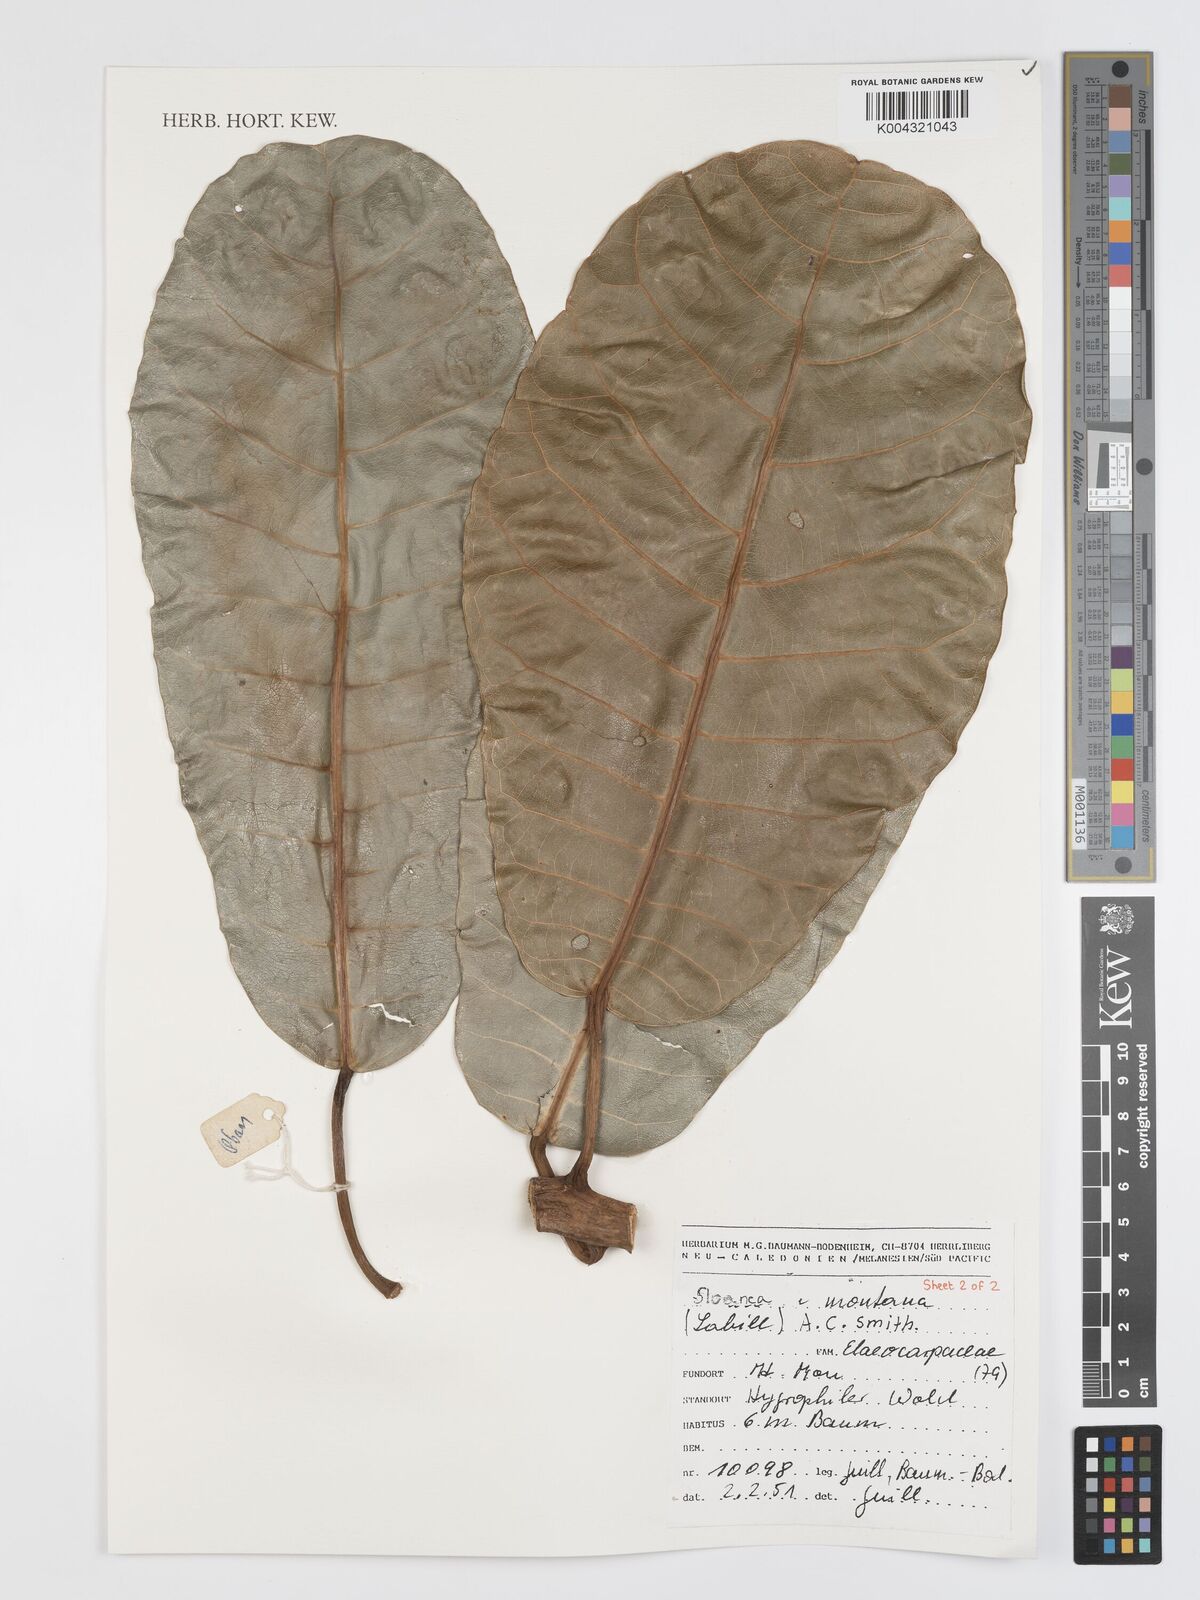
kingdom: Plantae
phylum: Tracheophyta
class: Magnoliopsida
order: Oxalidales
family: Elaeocarpaceae
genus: Sloanea
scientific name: Sloanea montana
